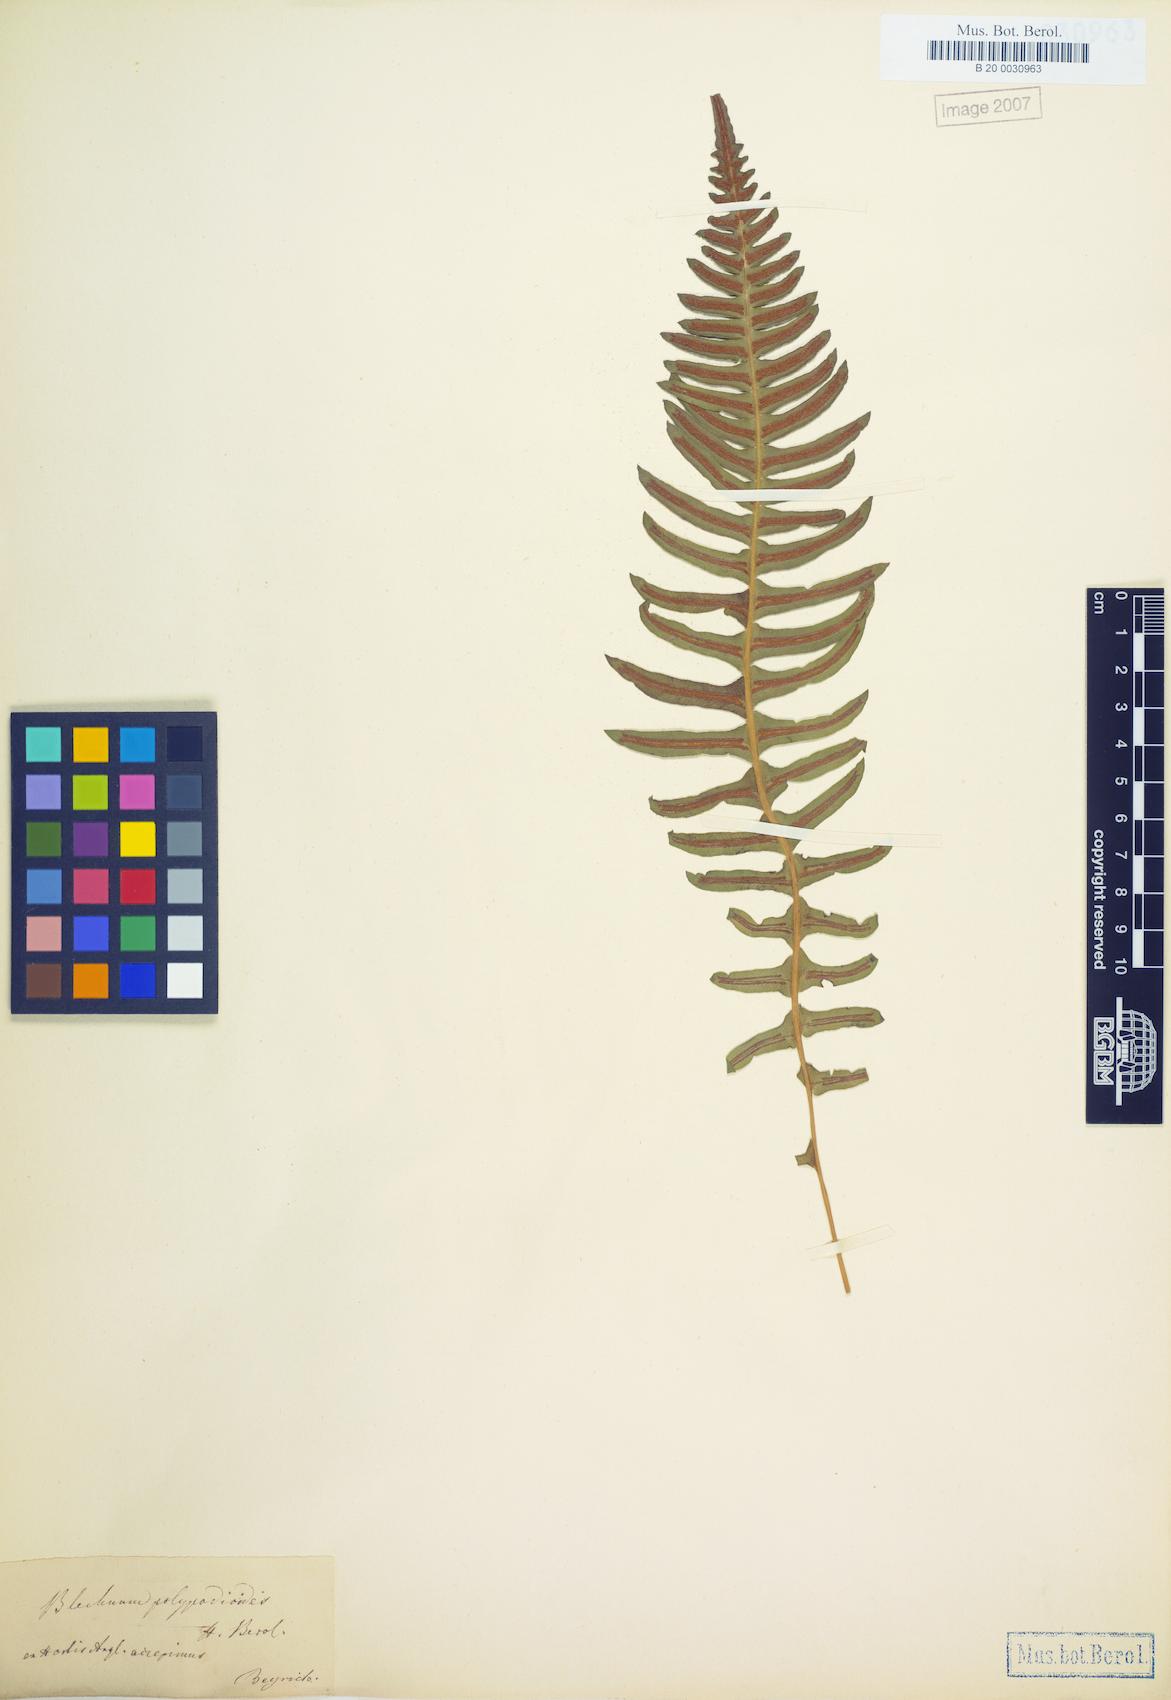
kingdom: Plantae
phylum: Tracheophyta
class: Polypodiopsida
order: Polypodiales
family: Blechnaceae
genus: Blechnum
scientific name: Blechnum laevigatum
